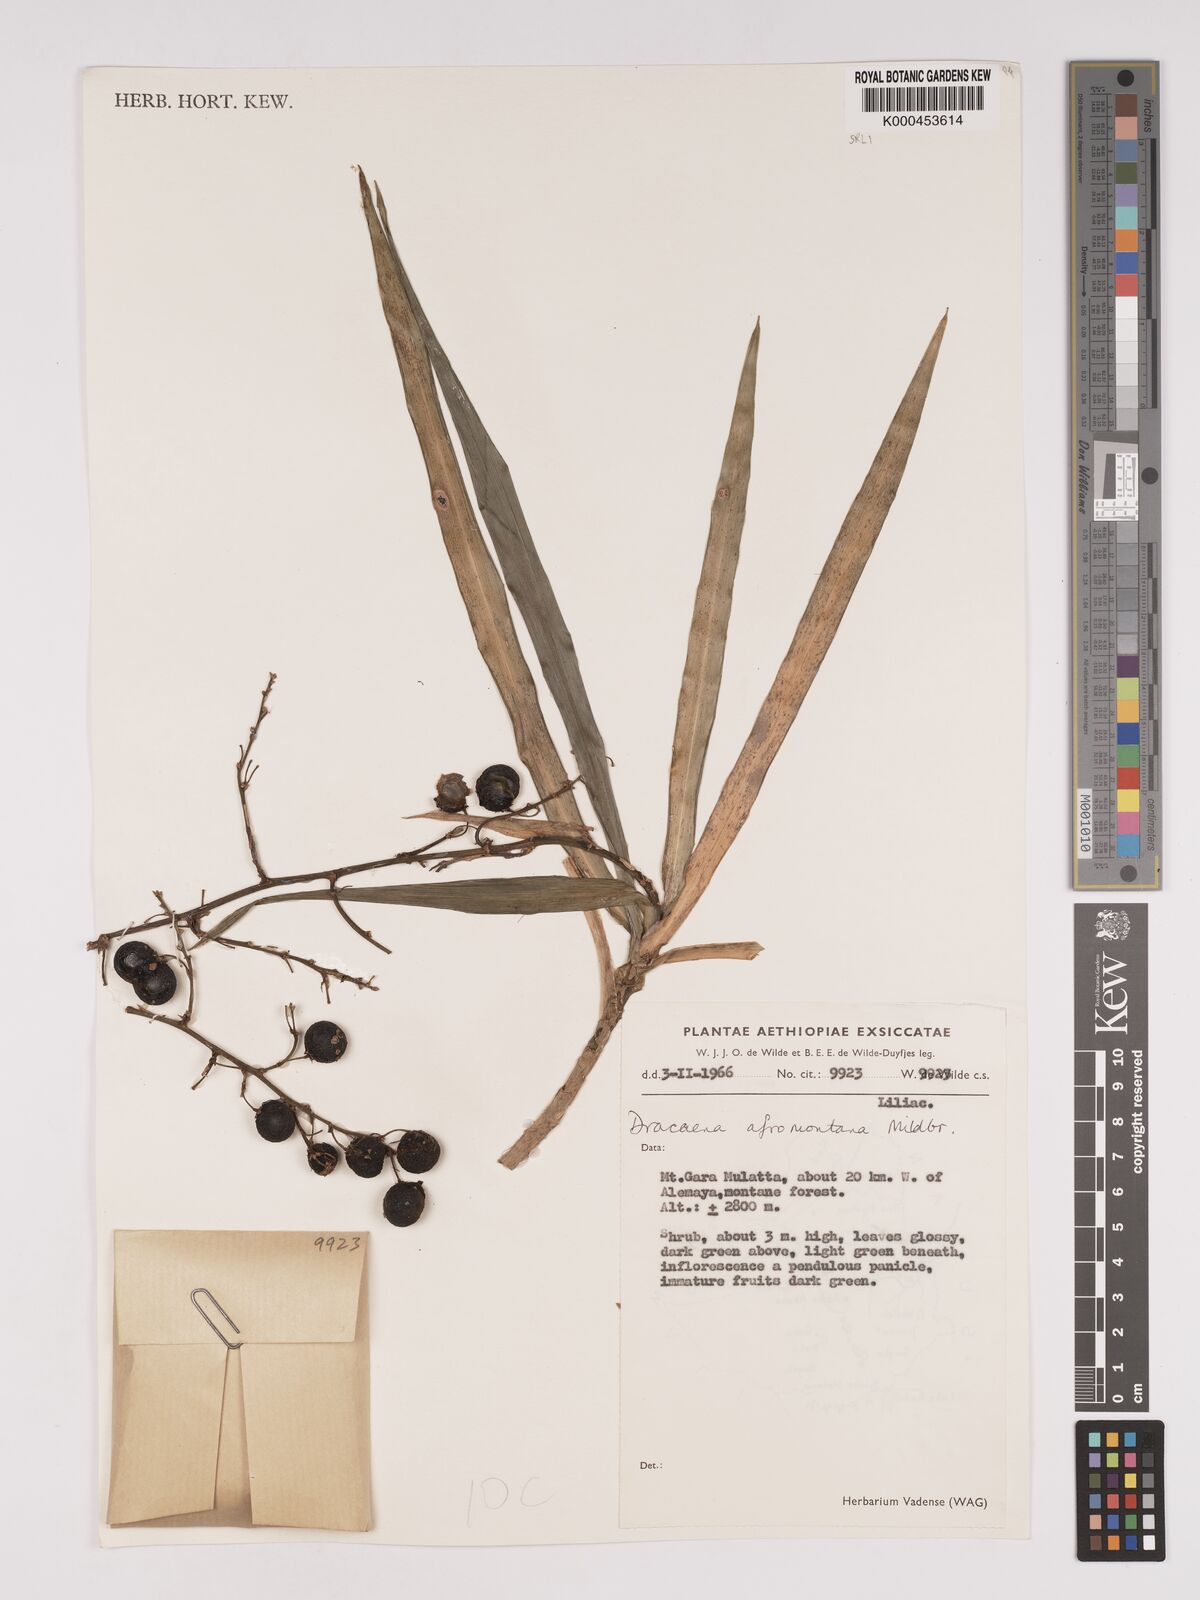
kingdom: Plantae
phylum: Tracheophyta
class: Liliopsida
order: Asparagales
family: Asparagaceae
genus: Dracaena
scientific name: Dracaena afromontana
